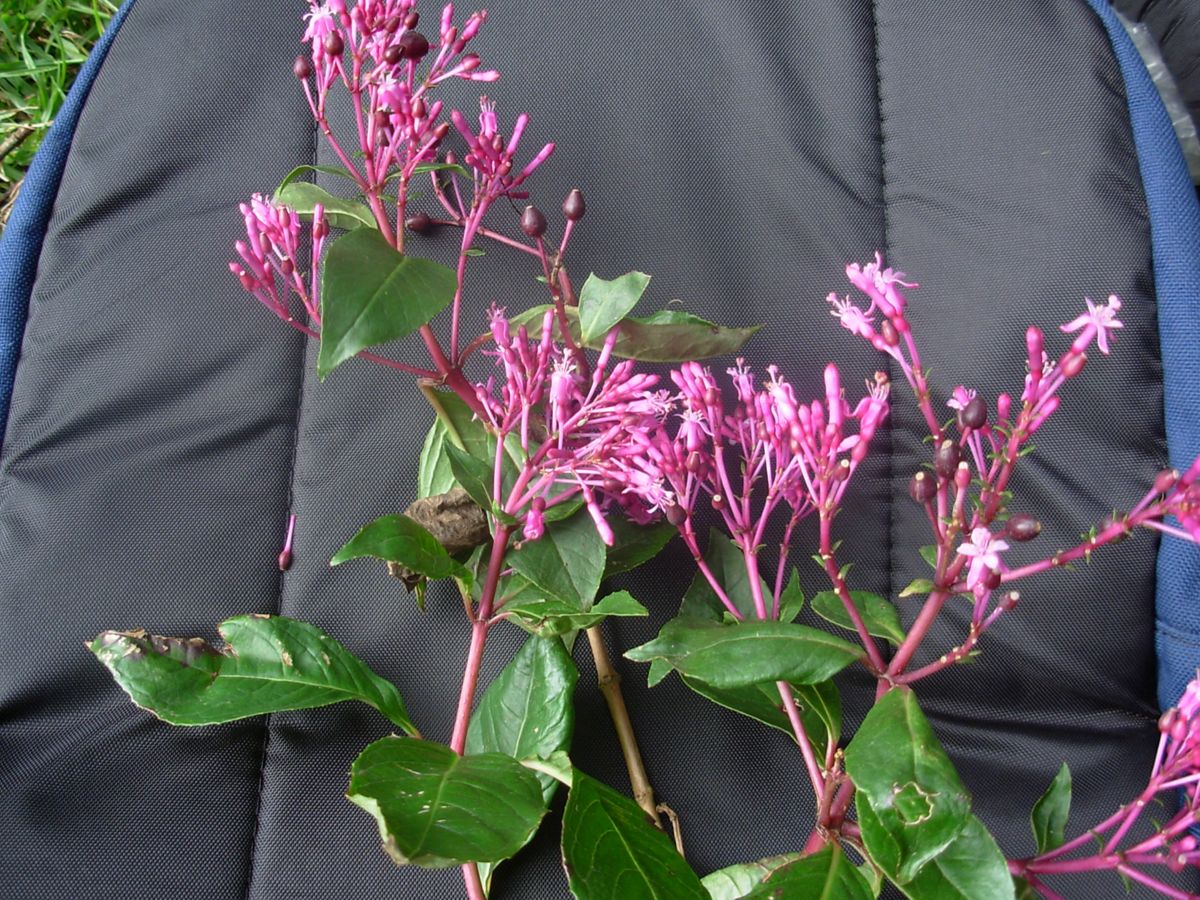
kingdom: Plantae
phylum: Tracheophyta
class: Magnoliopsida
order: Myrtales
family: Onagraceae
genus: Fuchsia
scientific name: Fuchsia paniculata
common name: Shrubby fuchsia
